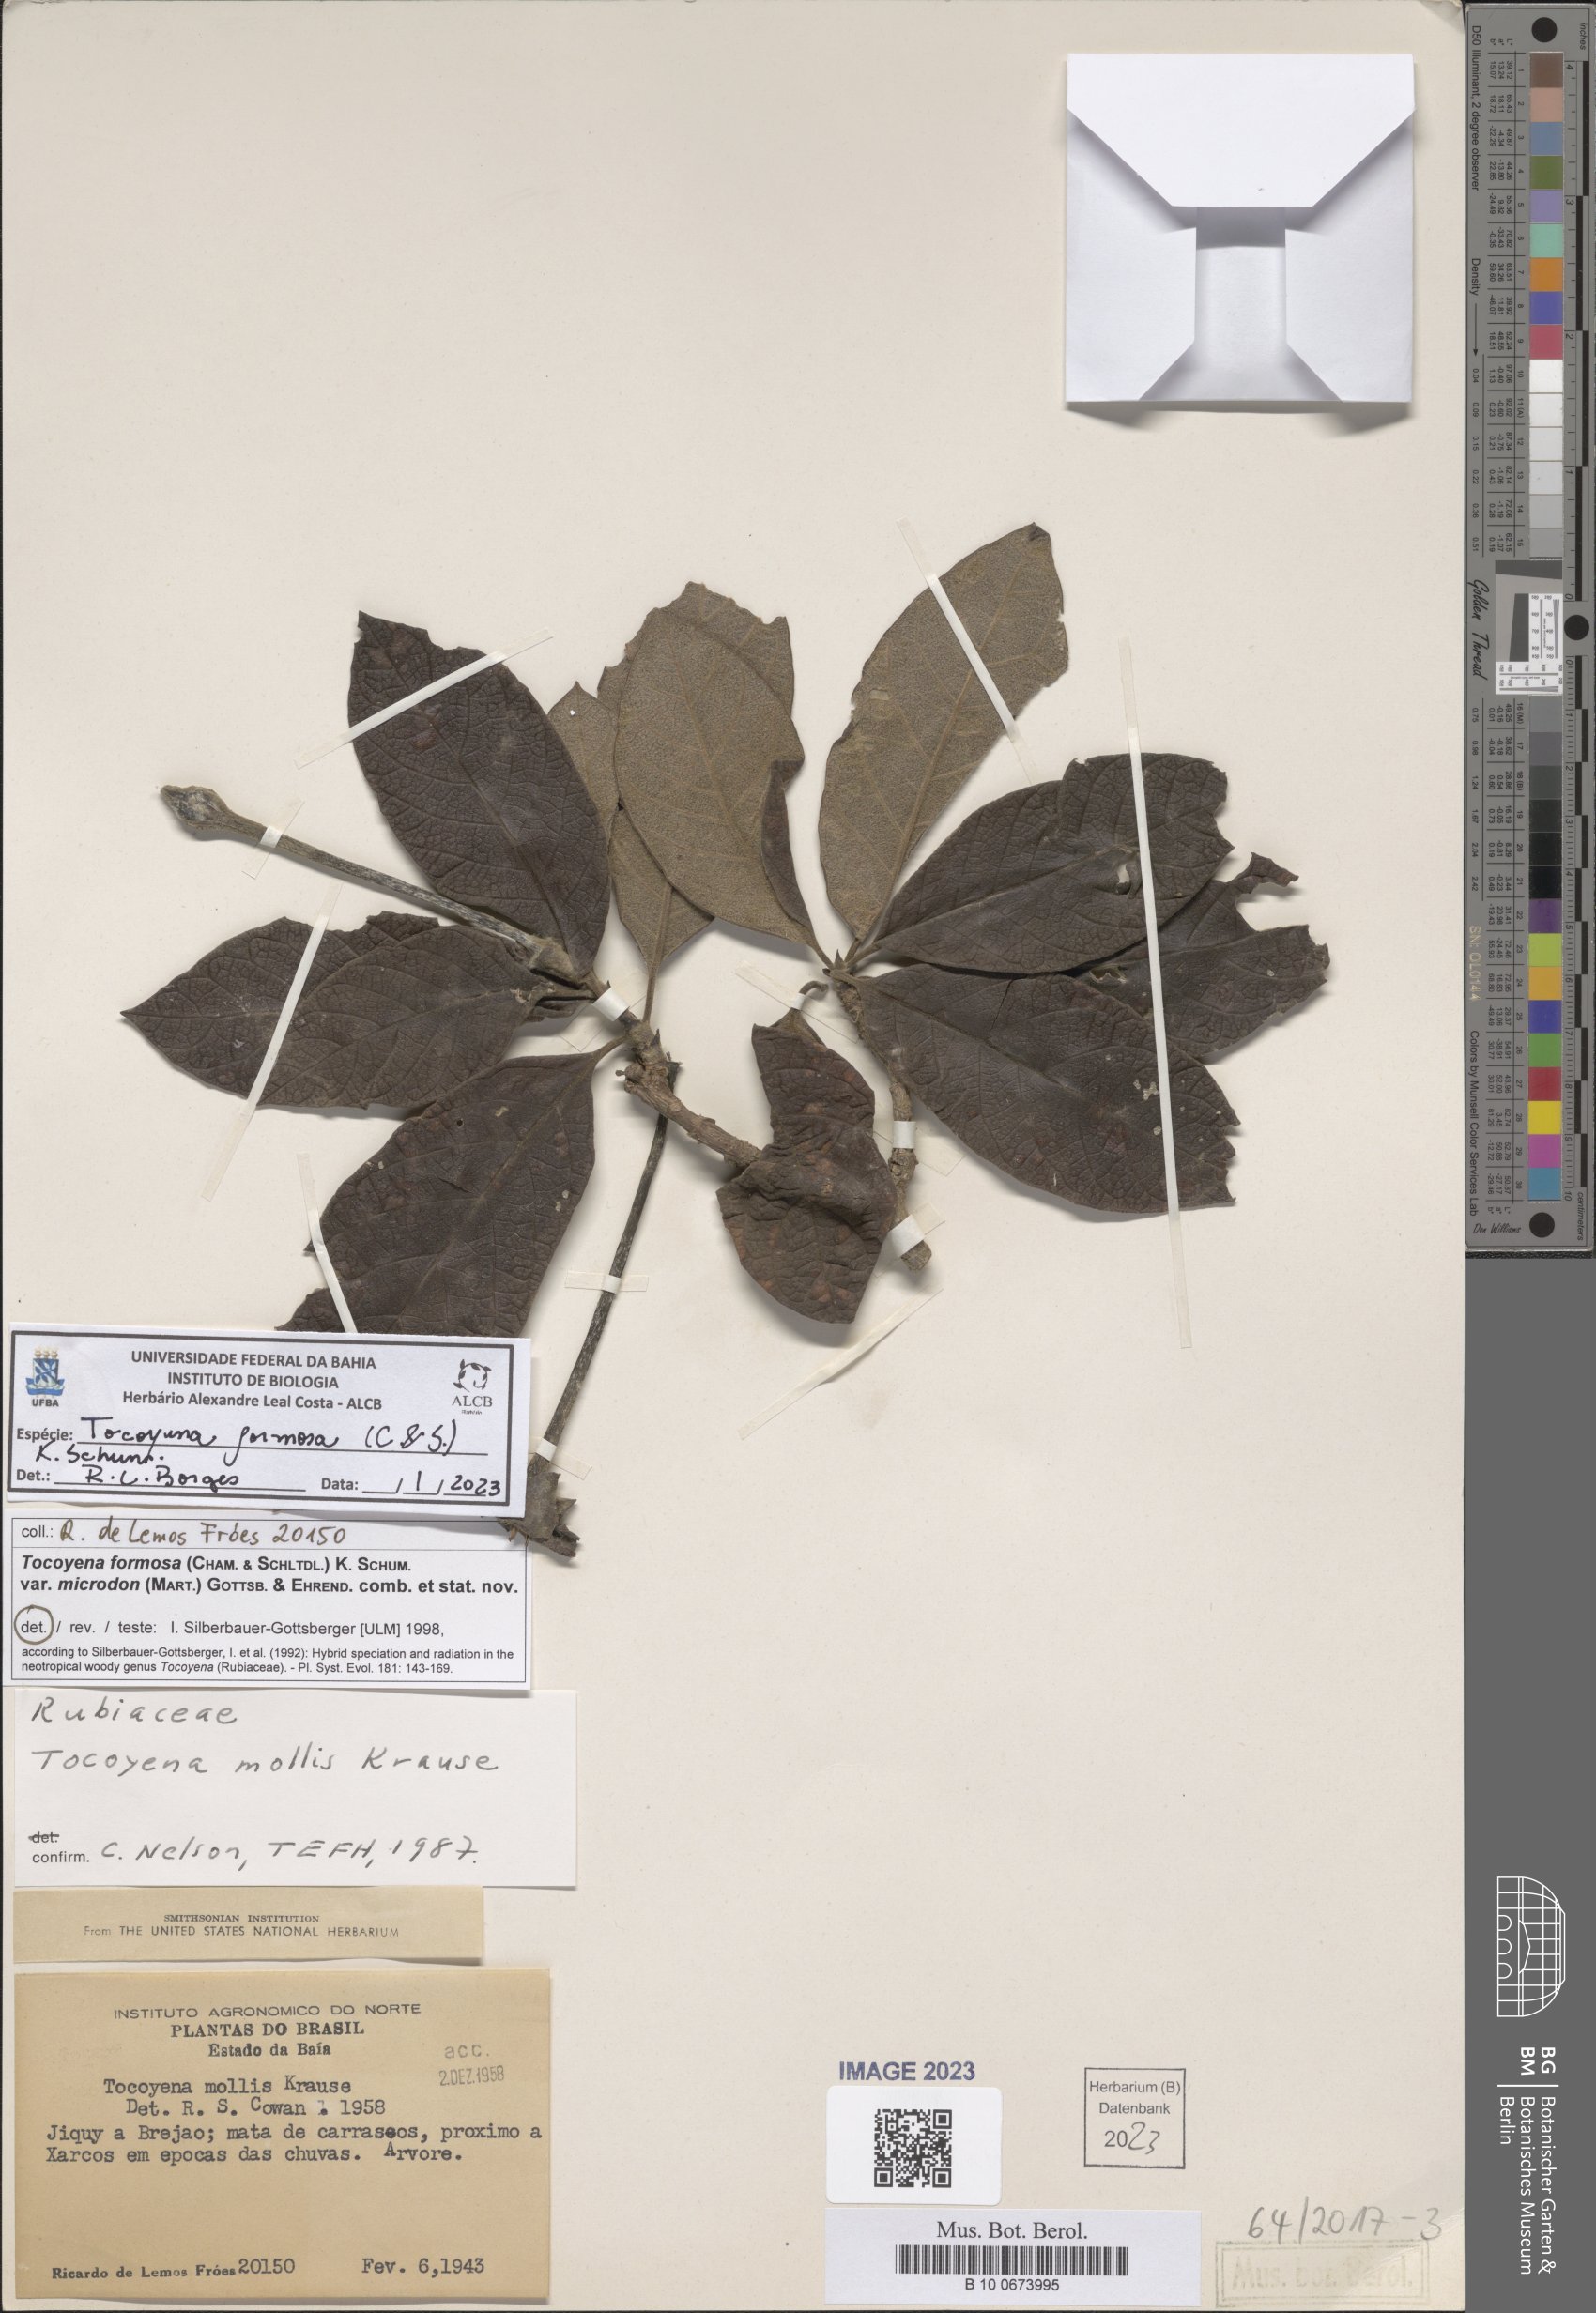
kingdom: Plantae
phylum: Tracheophyta
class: Magnoliopsida
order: Gentianales
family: Rubiaceae
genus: Tocoyena
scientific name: Tocoyena formosa
